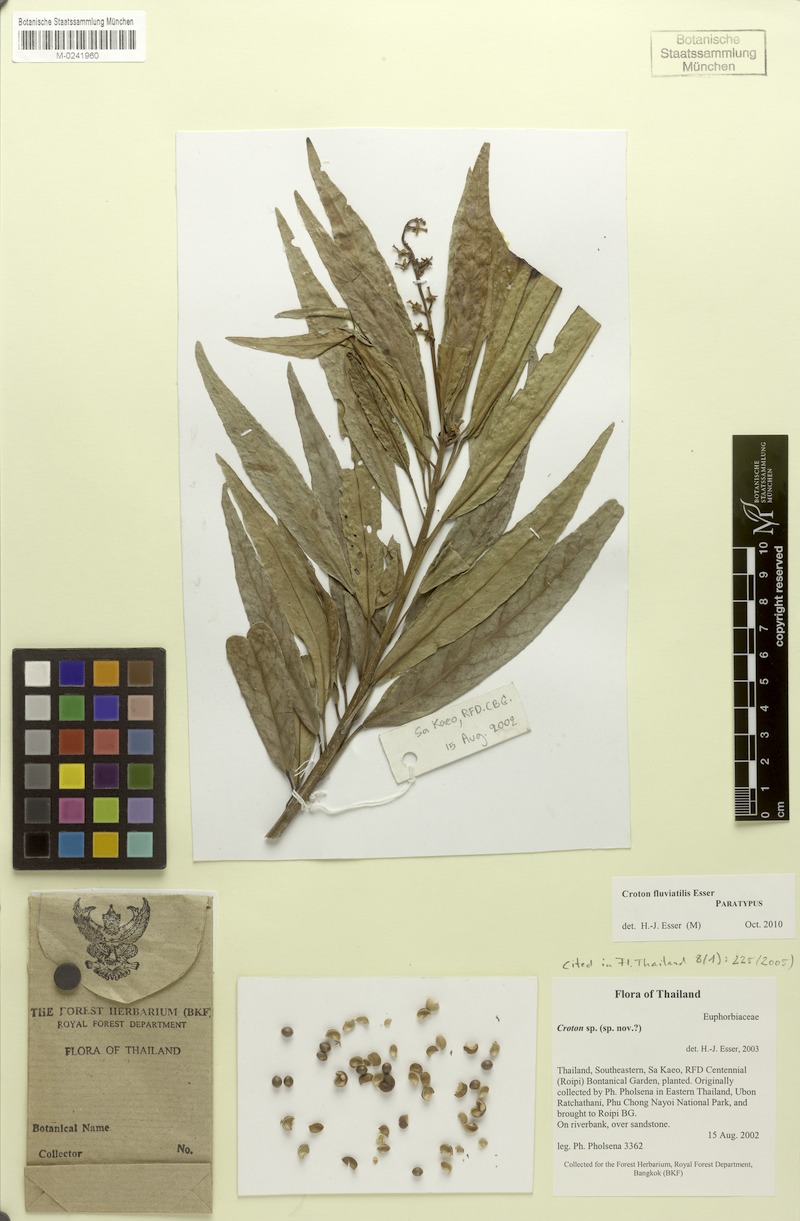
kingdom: Plantae
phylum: Tracheophyta
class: Magnoliopsida
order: Malpighiales
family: Euphorbiaceae
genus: Croton
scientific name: Croton fluviatilis
